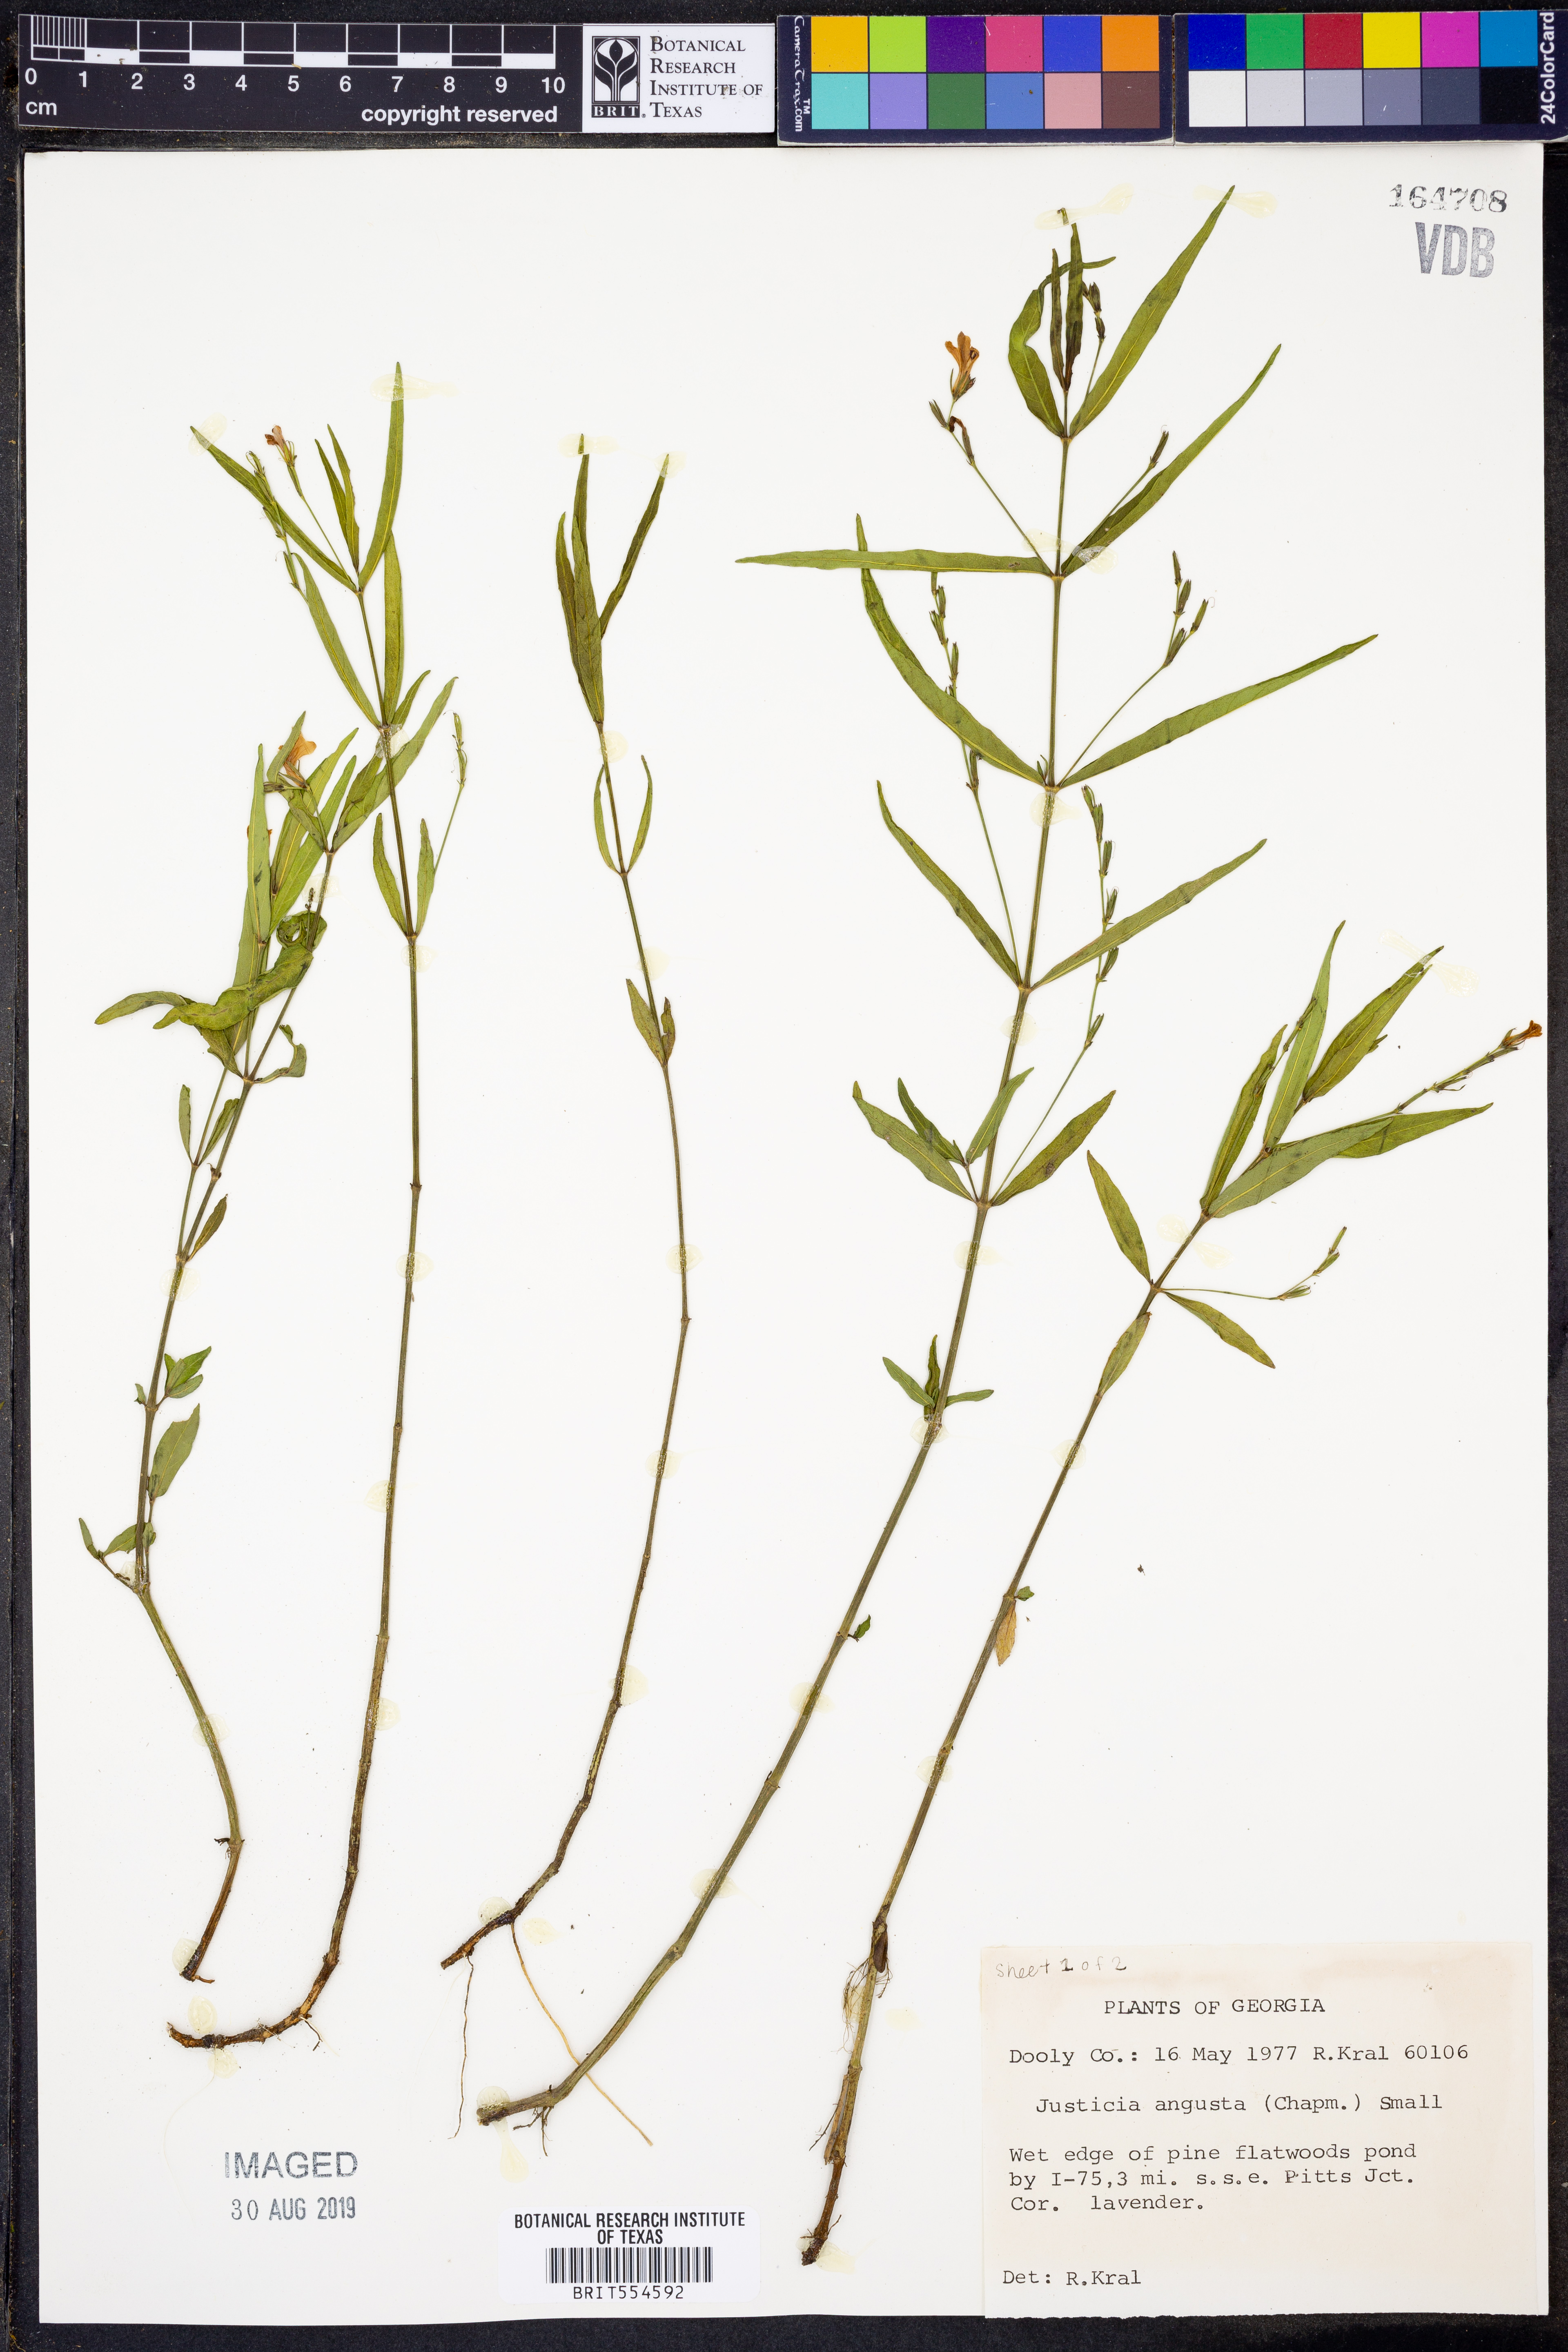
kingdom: Plantae
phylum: Tracheophyta
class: Magnoliopsida
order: Lamiales
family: Acanthaceae
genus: Dianthera
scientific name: Dianthera angusta
